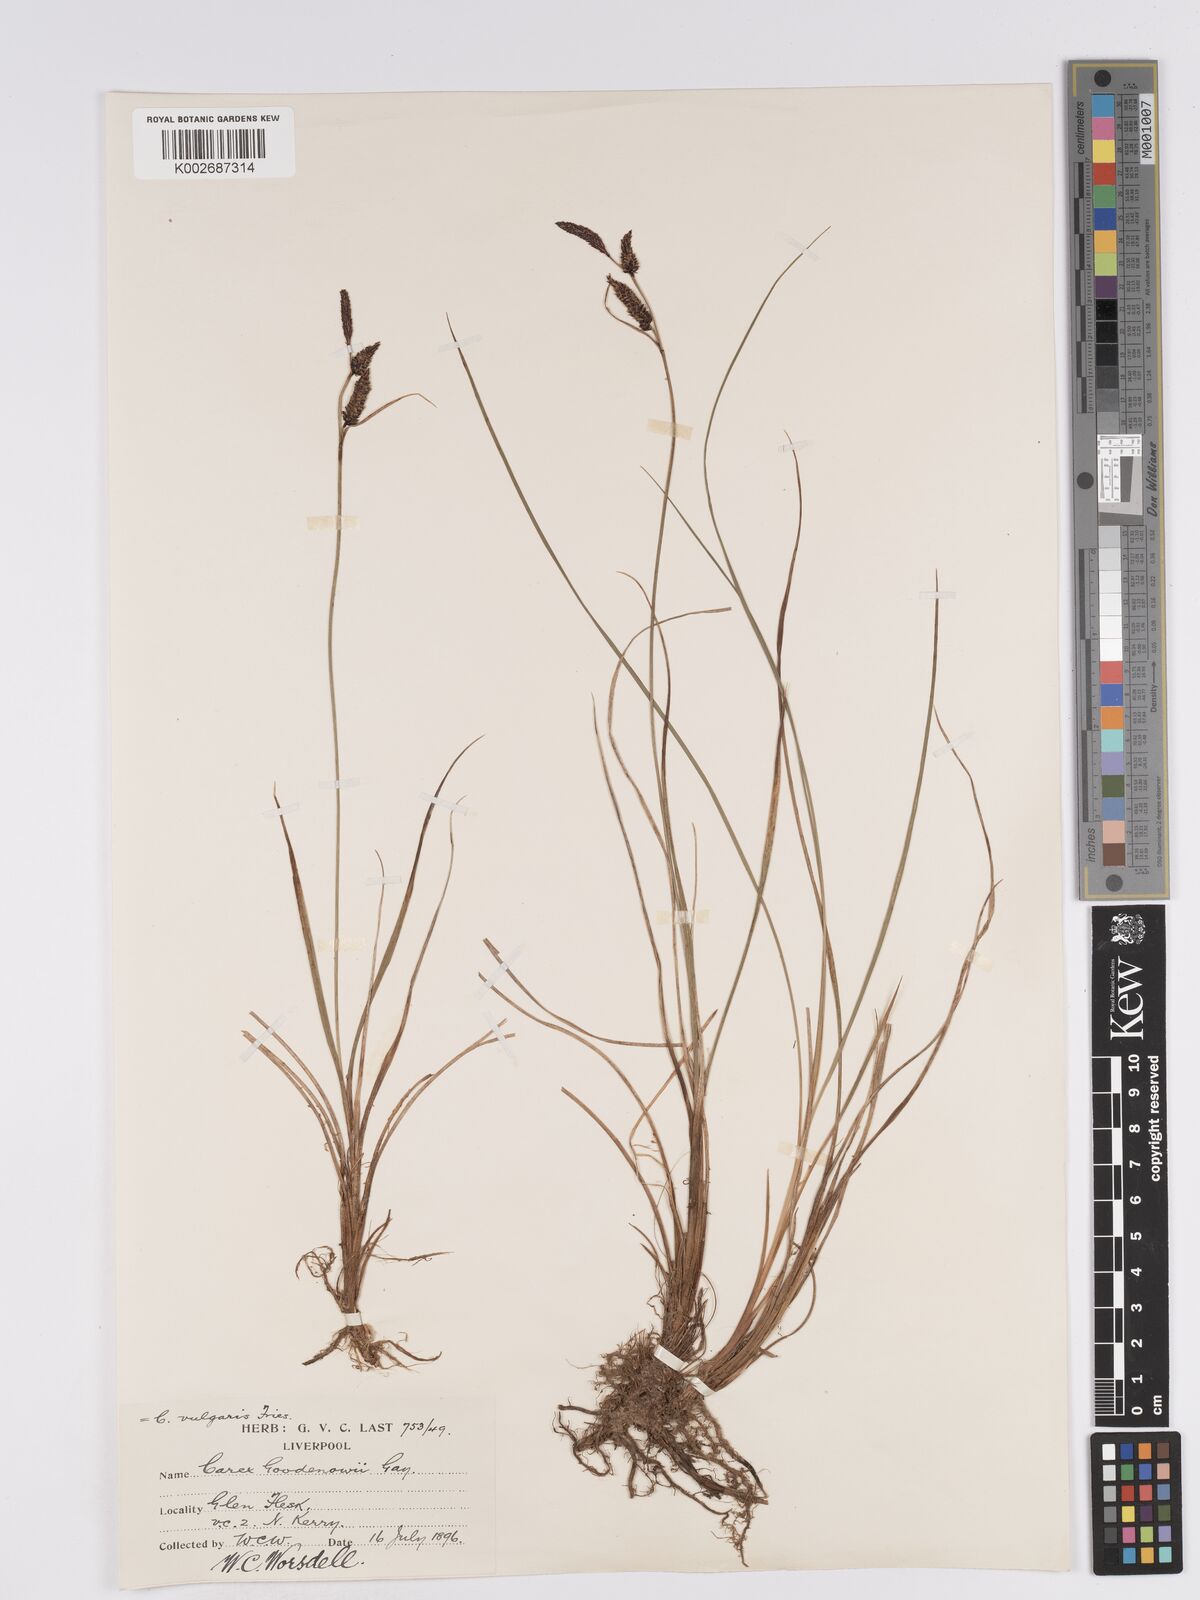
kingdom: Plantae
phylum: Tracheophyta
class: Liliopsida
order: Poales
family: Cyperaceae
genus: Carex
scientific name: Carex nigra
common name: Common sedge
